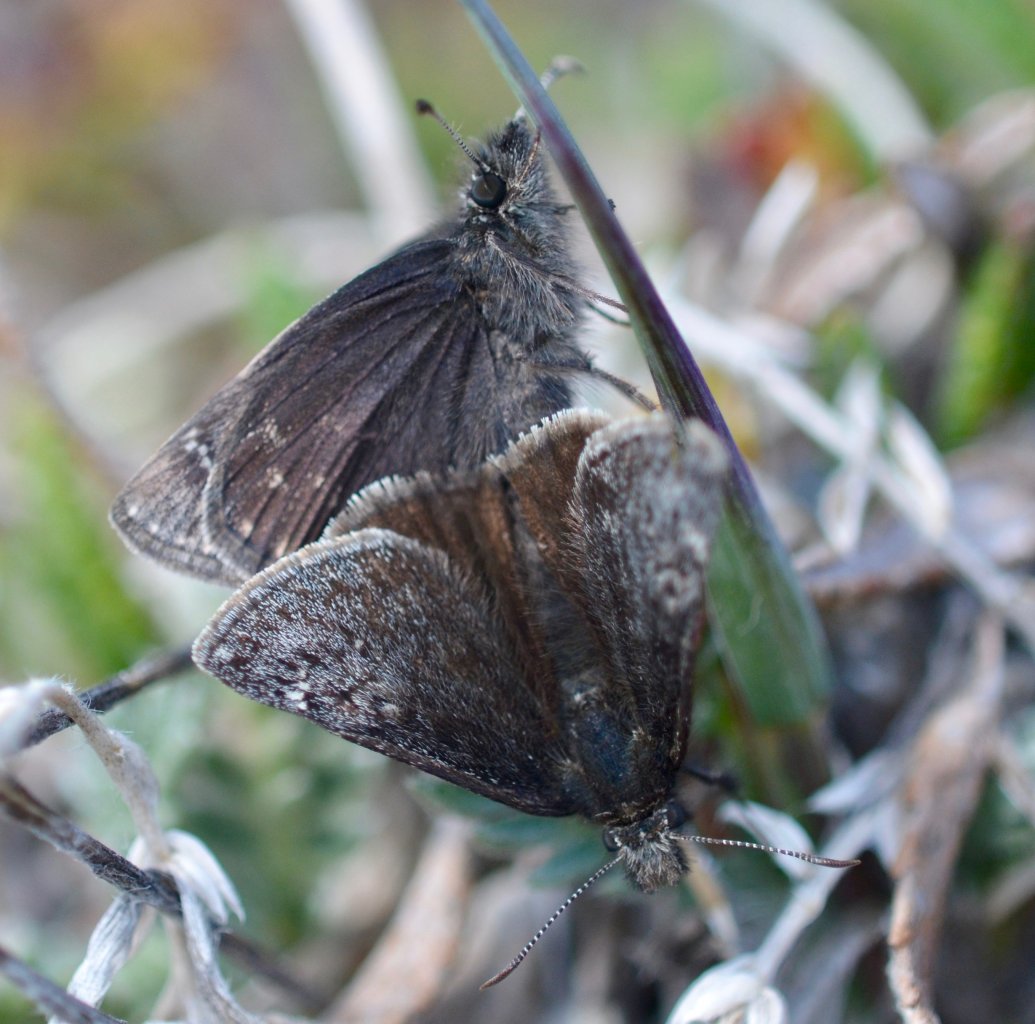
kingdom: Animalia
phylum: Arthropoda
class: Insecta
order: Lepidoptera
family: Hesperiidae
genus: Gesta
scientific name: Gesta
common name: Persius Duskywing
